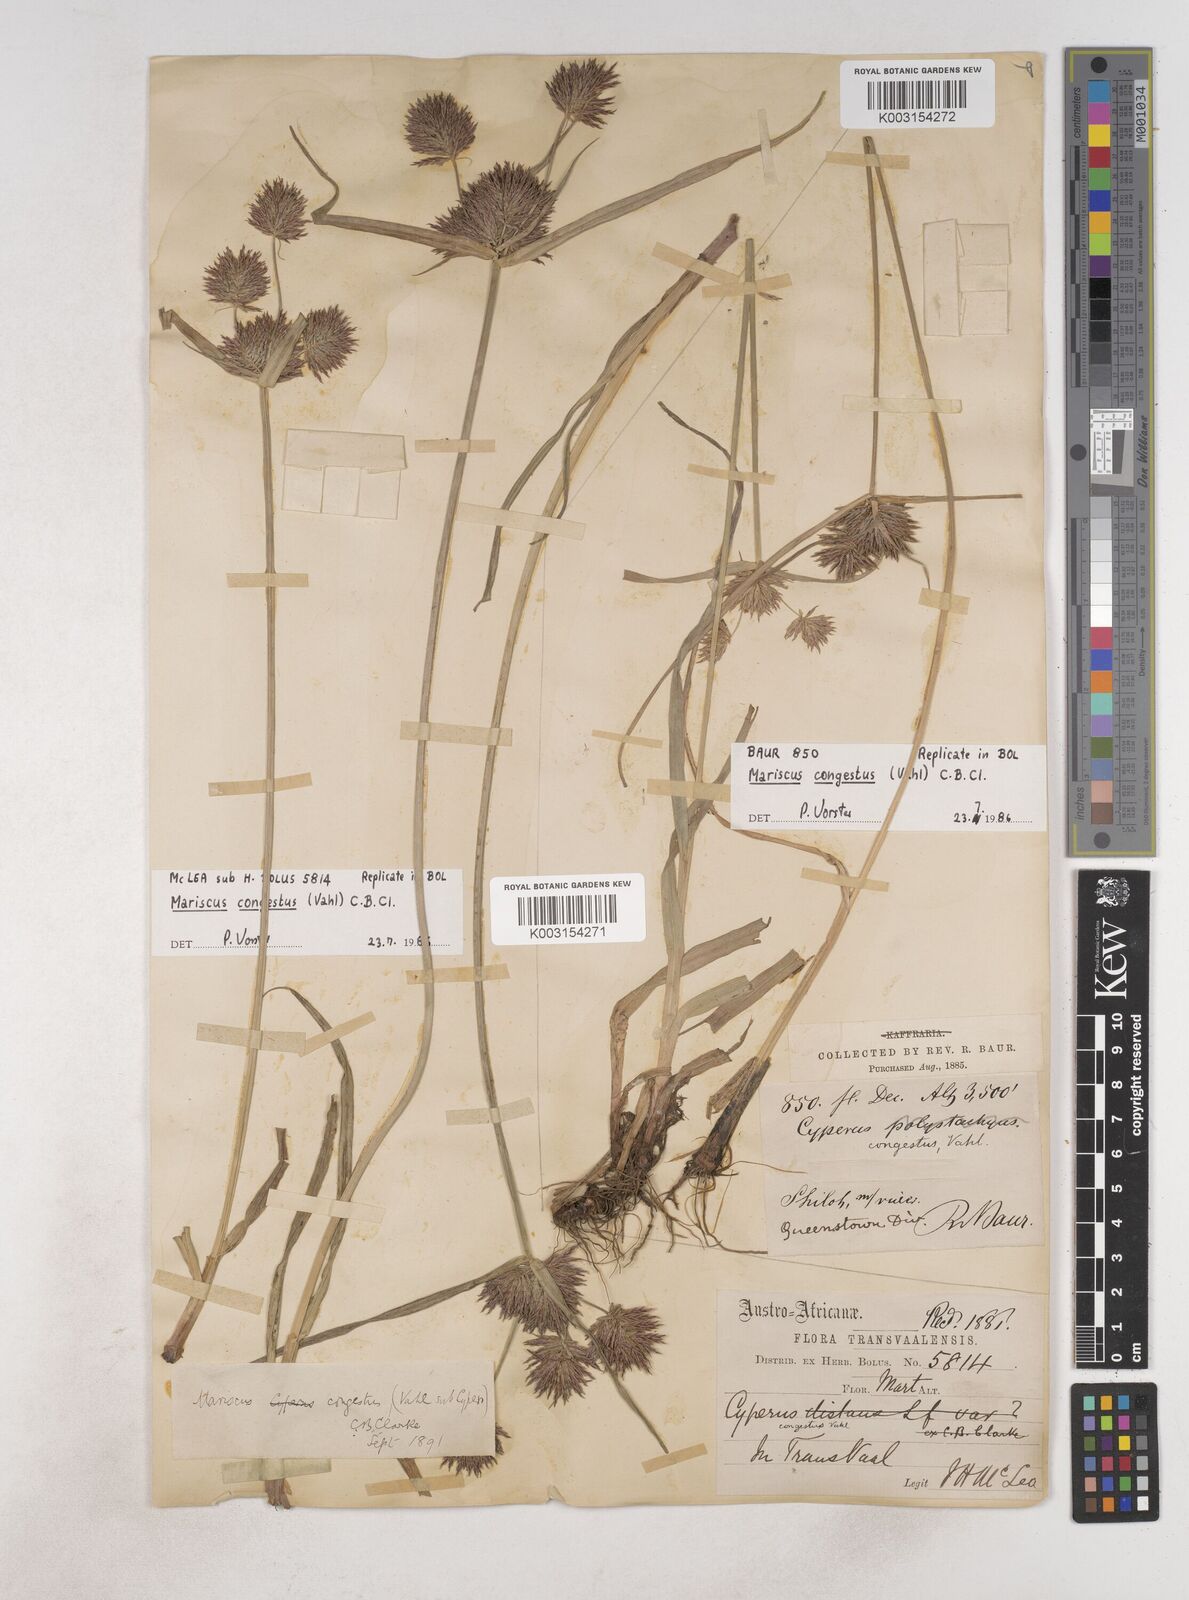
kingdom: Plantae
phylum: Tracheophyta
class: Liliopsida
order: Poales
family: Cyperaceae
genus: Cyperus
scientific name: Cyperus congestus
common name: Dense flat sedge
